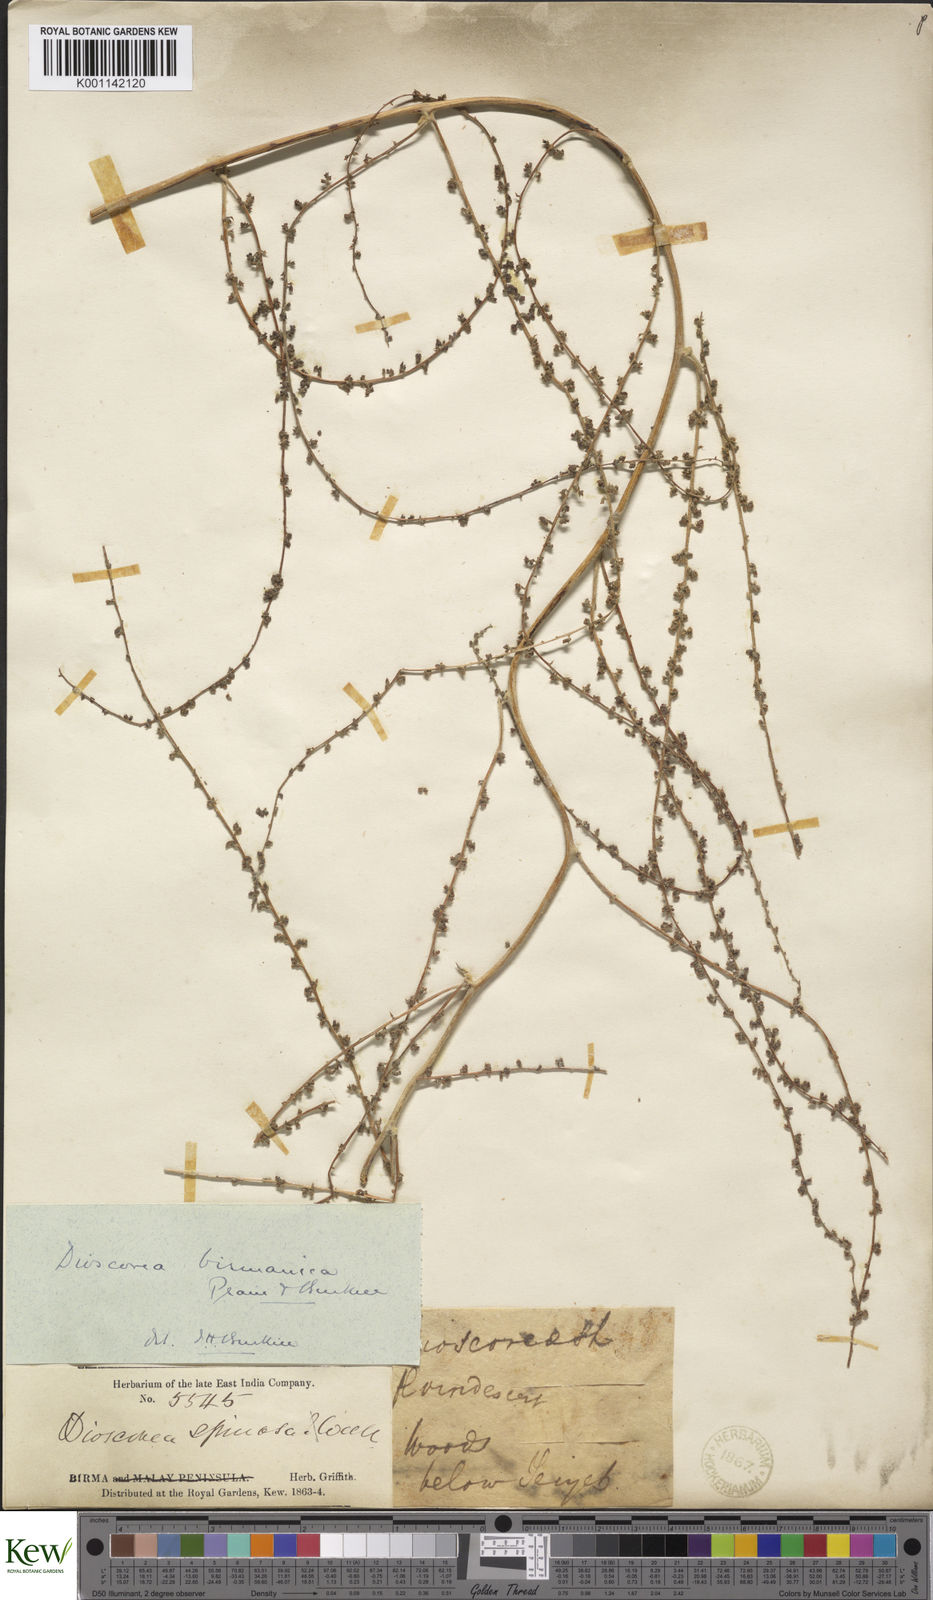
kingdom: Plantae
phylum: Tracheophyta
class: Liliopsida
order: Dioscoreales
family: Dioscoreaceae
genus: Dioscorea
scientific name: Dioscorea birmanica
